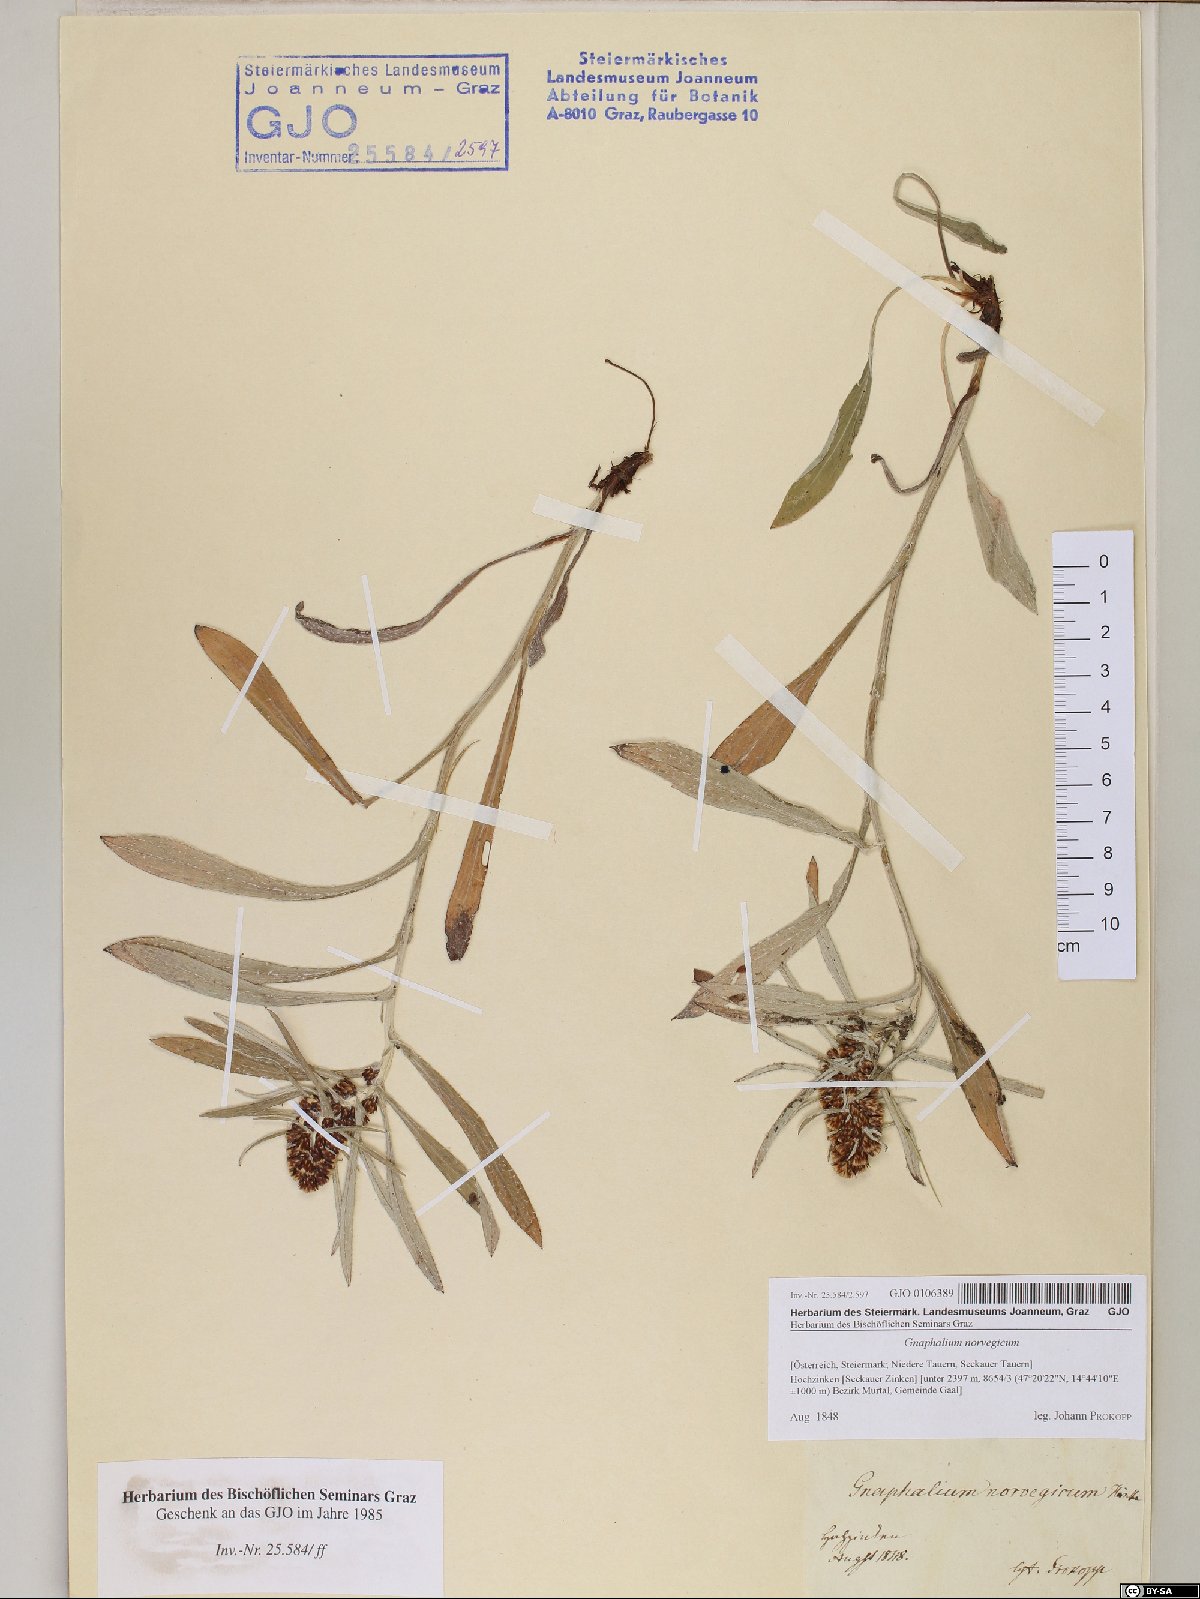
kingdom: Plantae
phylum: Tracheophyta
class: Magnoliopsida
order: Asterales
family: Asteraceae
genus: Omalotheca
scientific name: Omalotheca norvegica
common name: Norwegian arctic-cudweed
